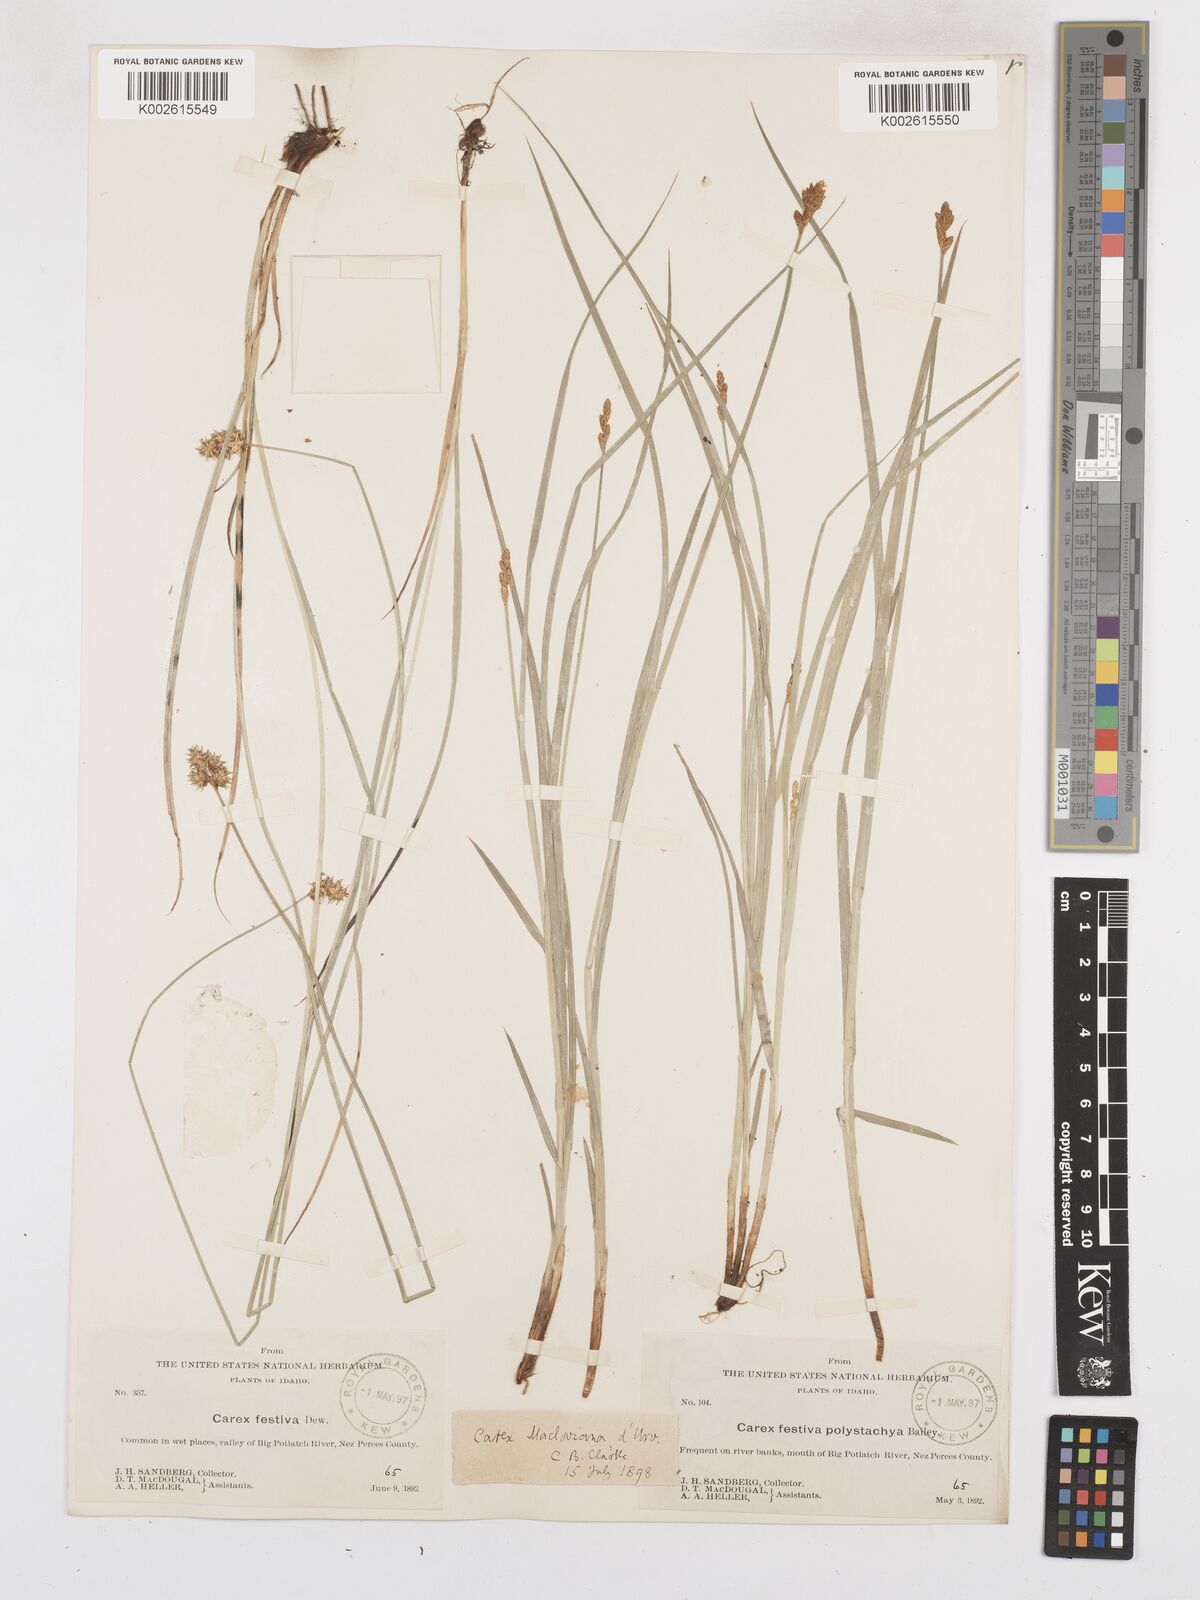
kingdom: Plantae
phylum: Tracheophyta
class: Liliopsida
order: Poales
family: Cyperaceae
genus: Carex
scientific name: Carex macloviana
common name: Falkland island sedge
